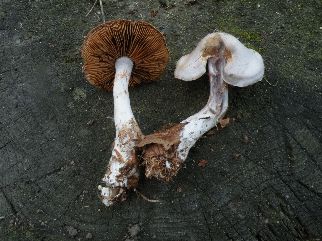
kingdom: Fungi
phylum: Basidiomycota
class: Agaricomycetes
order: Agaricales
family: Cortinariaceae
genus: Cortinarius
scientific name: Cortinarius alboviolaceus
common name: lysviolet slørhat
